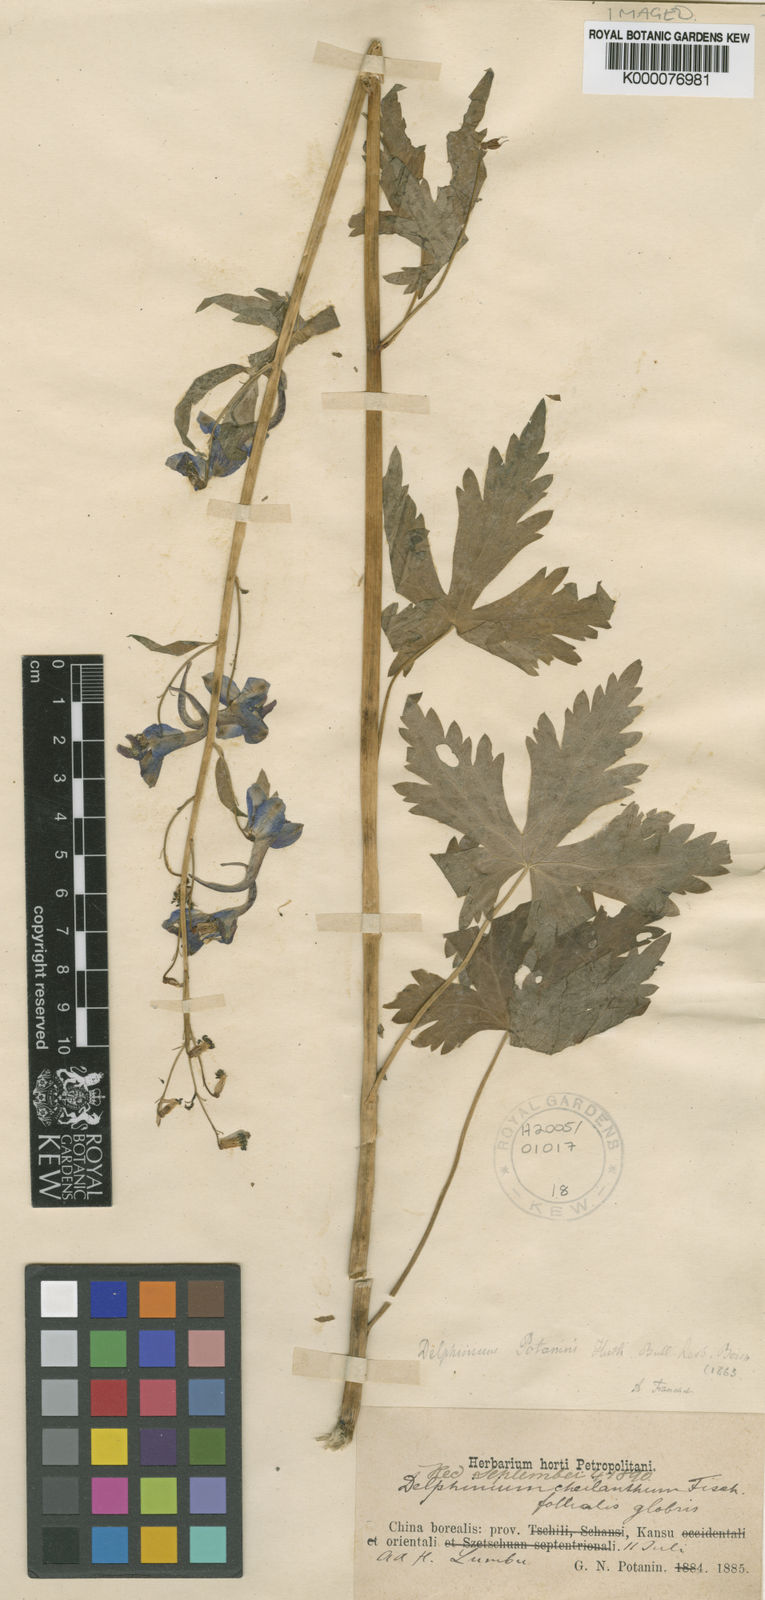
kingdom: Plantae
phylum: Tracheophyta
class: Magnoliopsida
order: Ranunculales
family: Ranunculaceae
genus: Delphinium
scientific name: Delphinium potaninii
